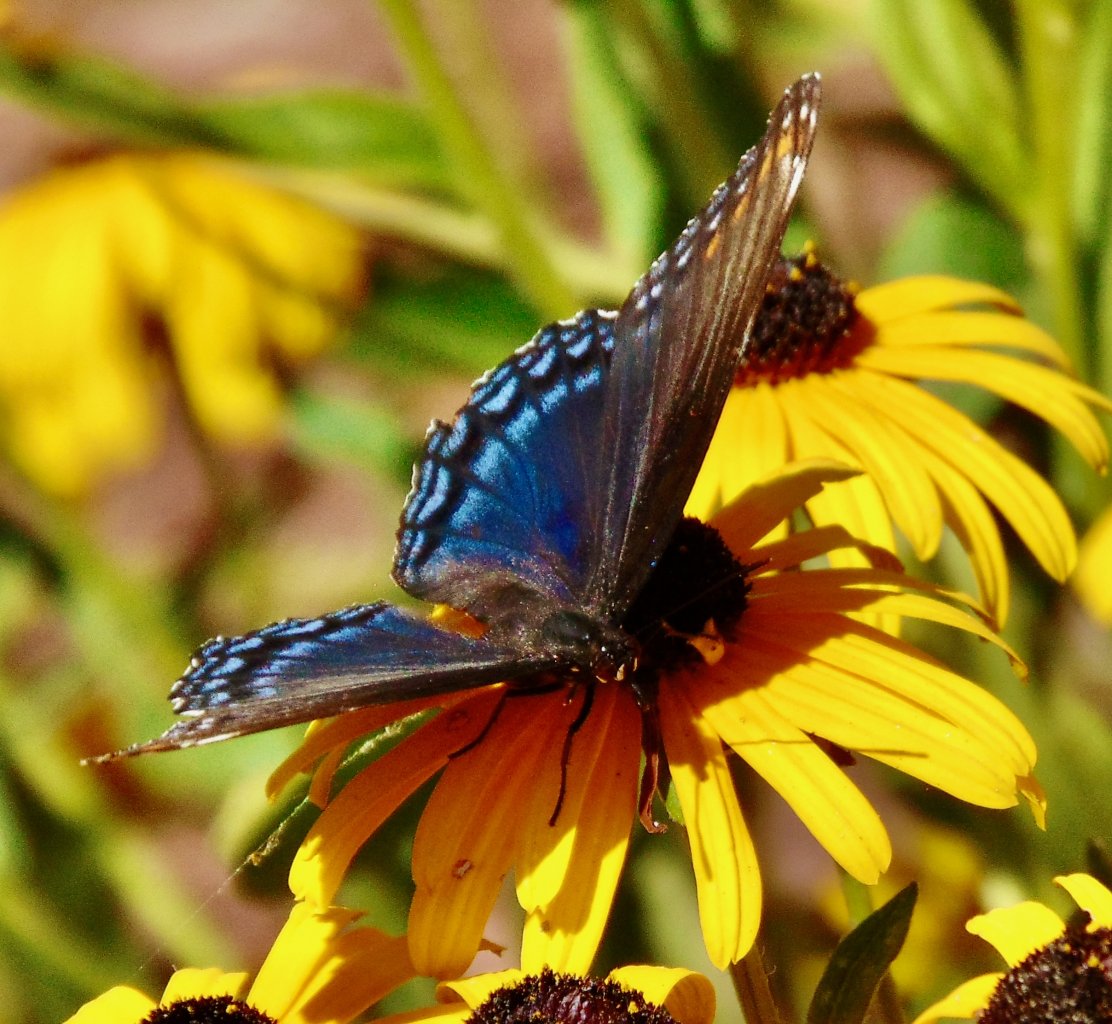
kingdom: Animalia
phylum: Arthropoda
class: Insecta
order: Lepidoptera
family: Nymphalidae
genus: Limenitis
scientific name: Limenitis astyanax
